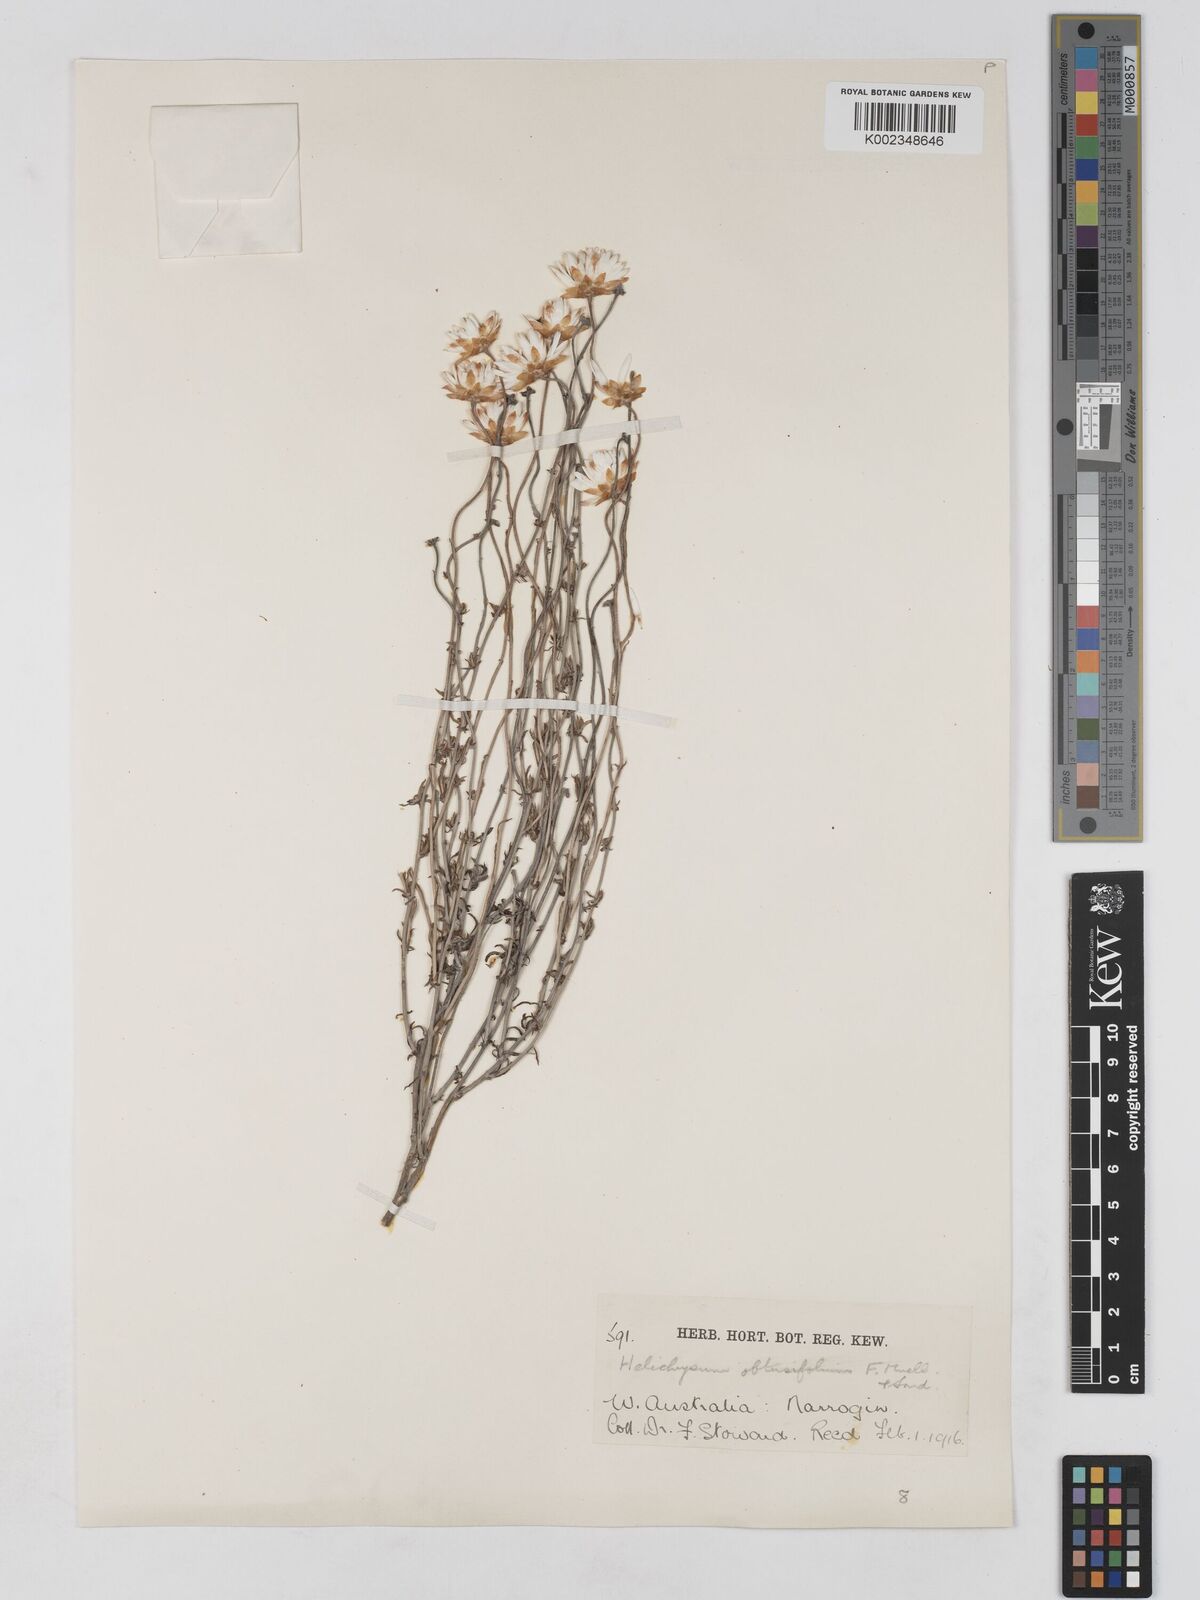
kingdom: Plantae
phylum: Tracheophyta
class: Magnoliopsida
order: Asterales
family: Asteraceae
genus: Argentipallium
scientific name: Argentipallium obtusifolium
